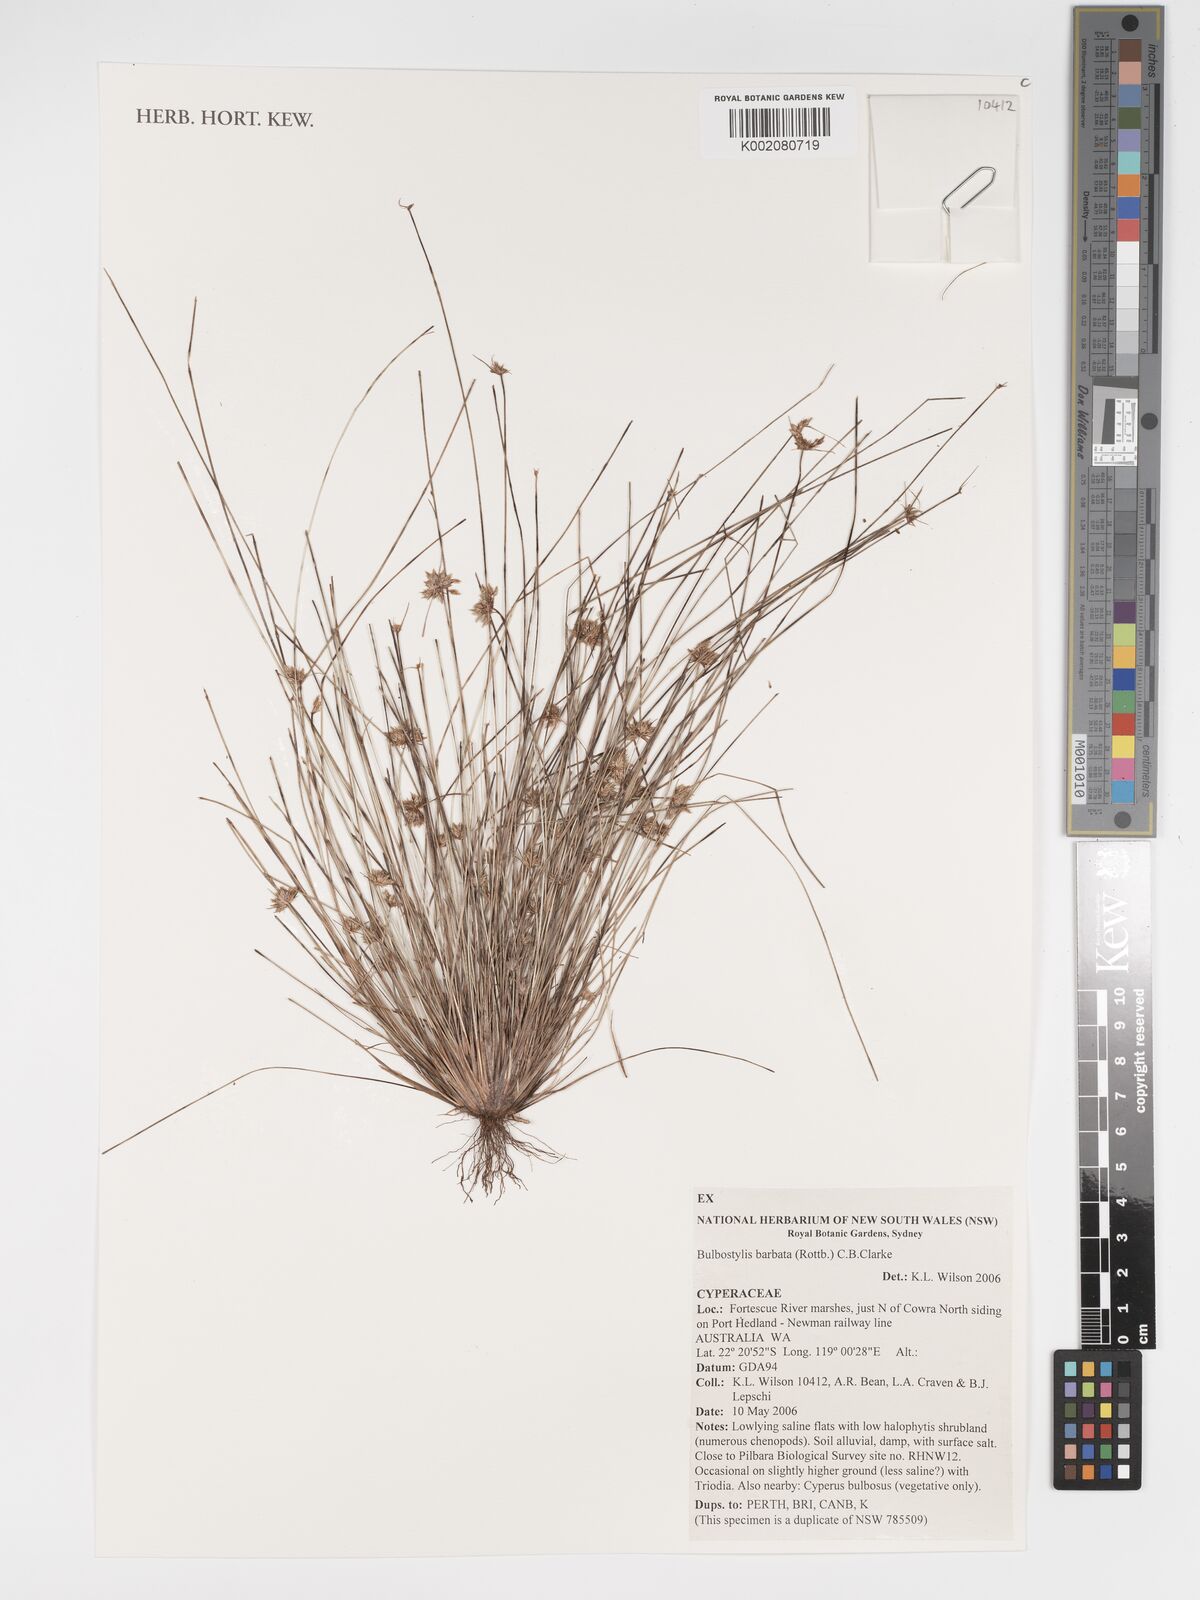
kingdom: Plantae
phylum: Tracheophyta
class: Liliopsida
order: Poales
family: Cyperaceae
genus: Bulbostylis
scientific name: Bulbostylis barbata
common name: Watergrass
